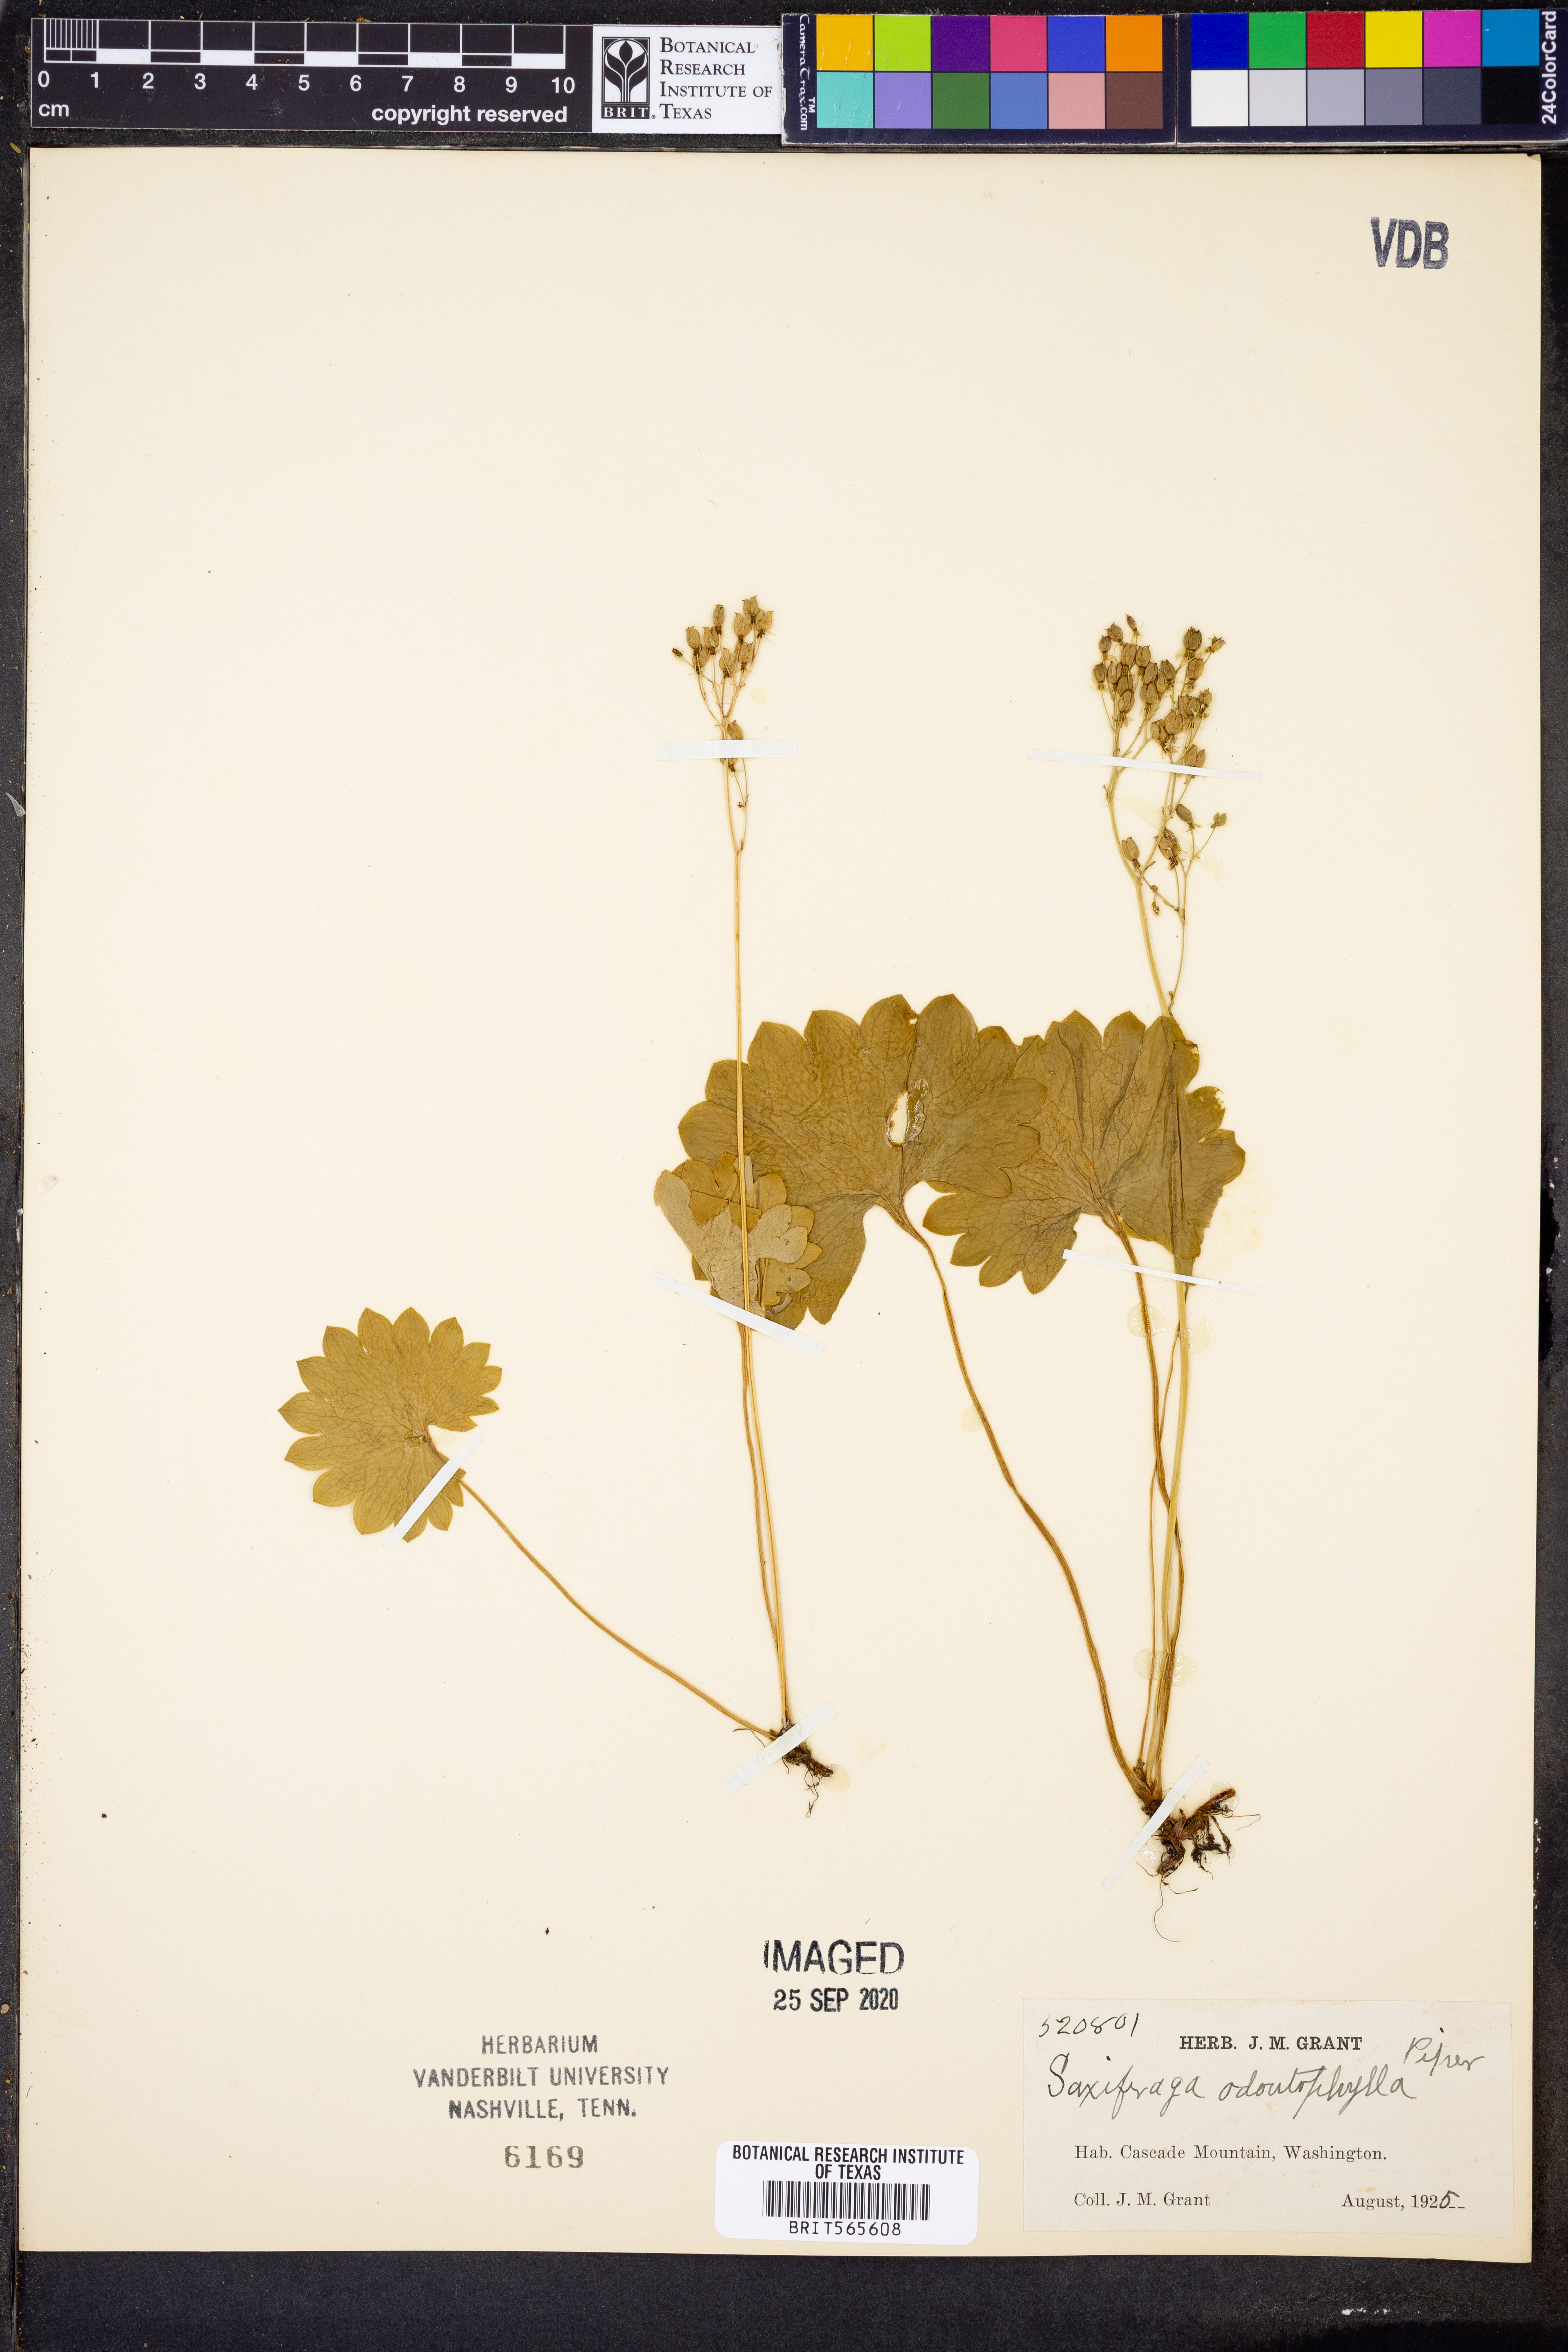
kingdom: Plantae
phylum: Tracheophyta
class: Magnoliopsida
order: Saxifragales
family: Saxifragaceae
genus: Micranthes
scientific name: Micranthes odontoloma
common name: Brook saxifrage
